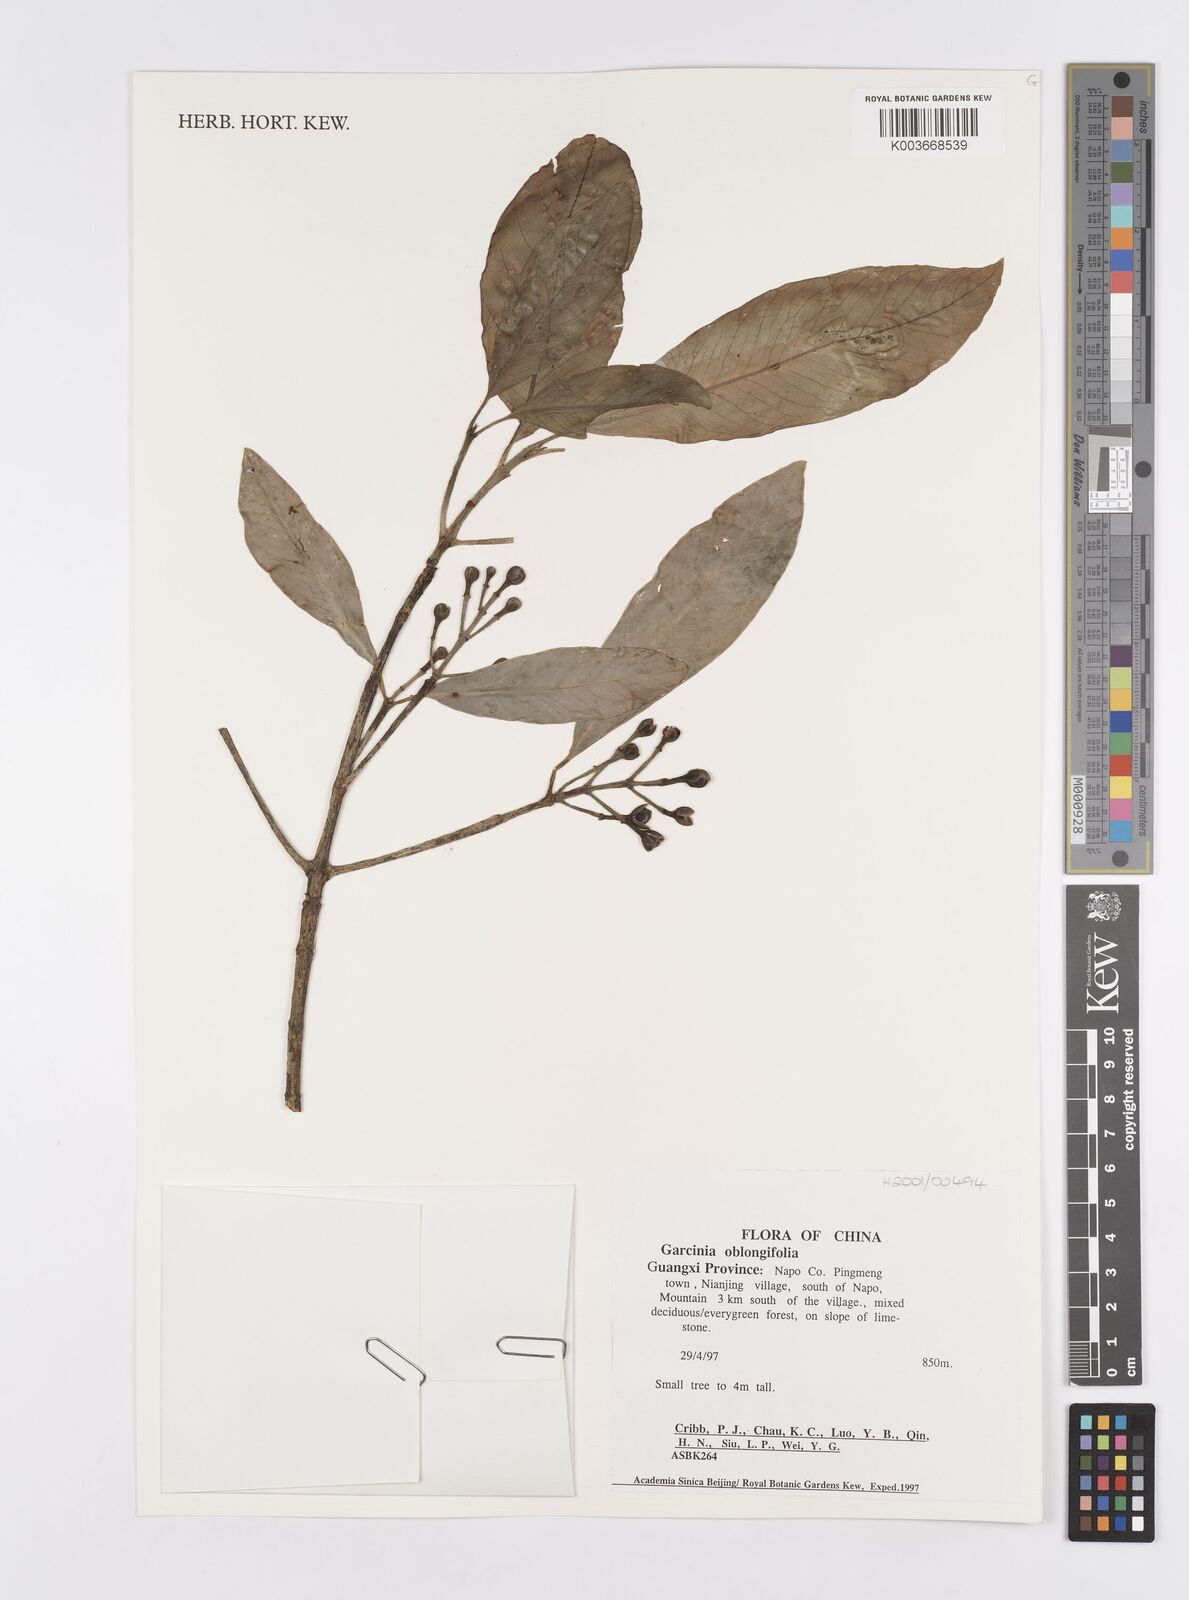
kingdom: Plantae
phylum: Tracheophyta
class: Magnoliopsida
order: Malpighiales
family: Clusiaceae
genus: Garcinia
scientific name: Garcinia oblongifolia
